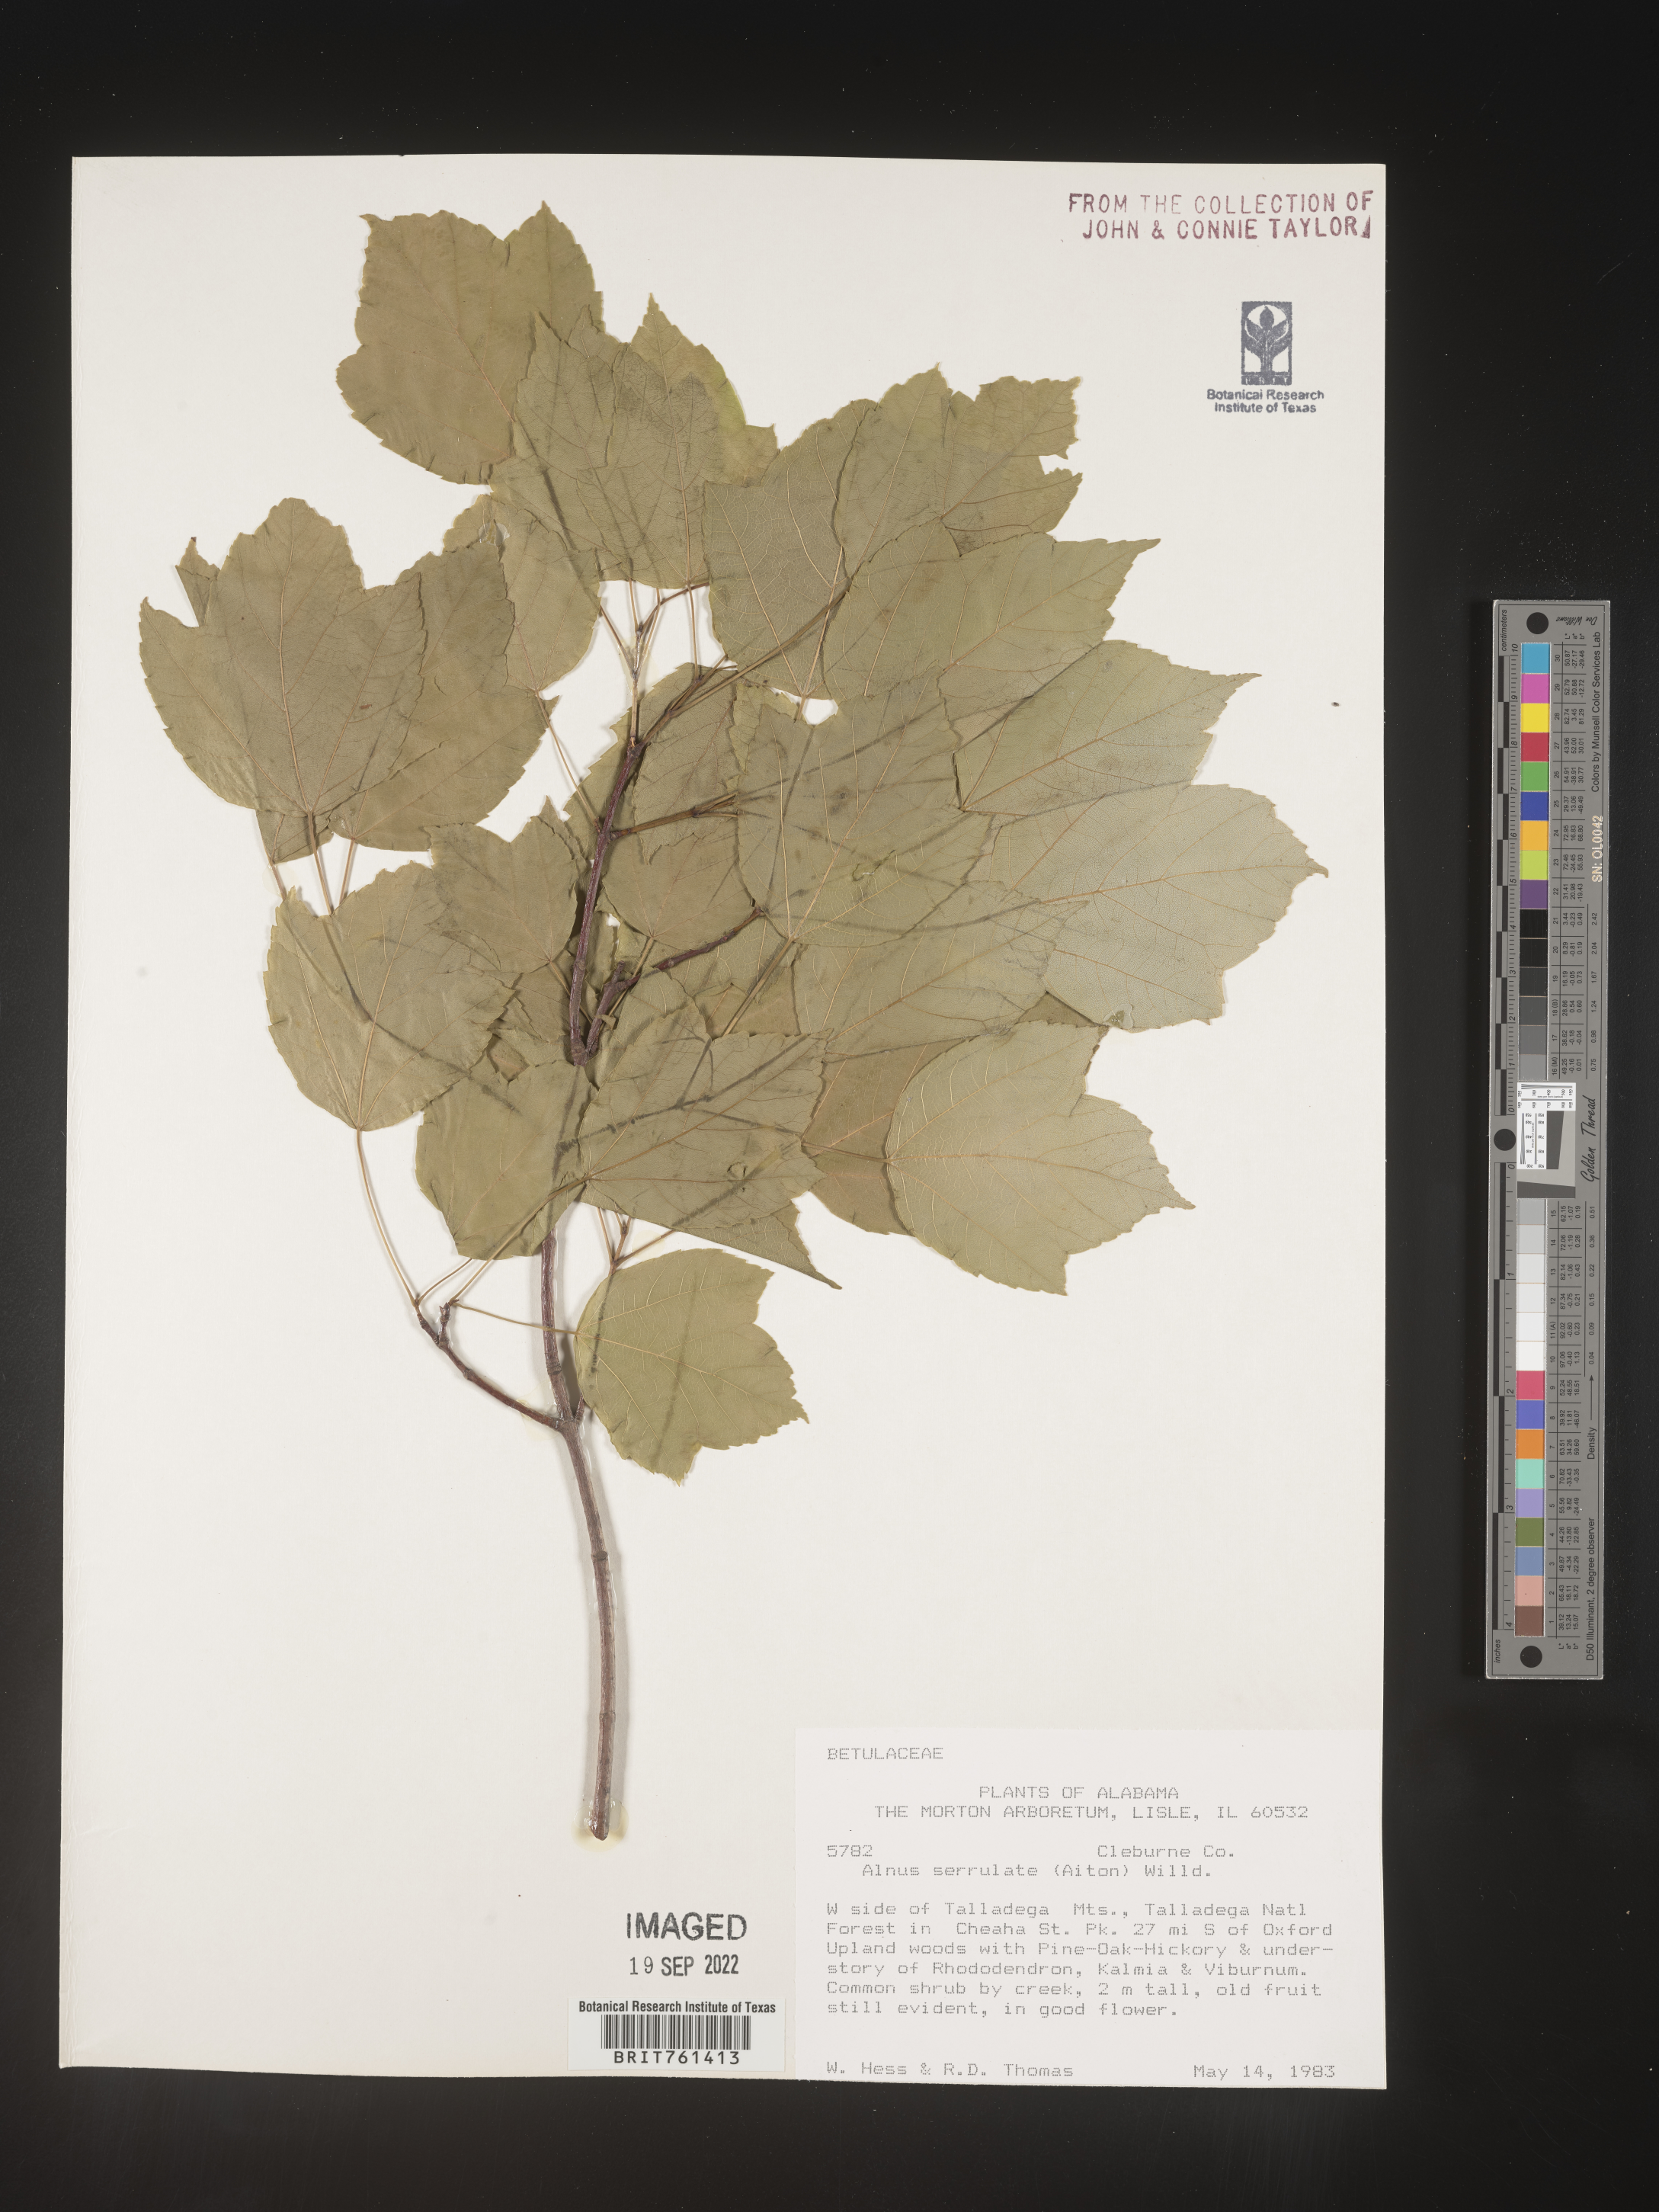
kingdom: Plantae
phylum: Tracheophyta
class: Magnoliopsida
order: Fagales
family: Betulaceae
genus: Alnus
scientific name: Alnus serrulata
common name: Hazel alder
